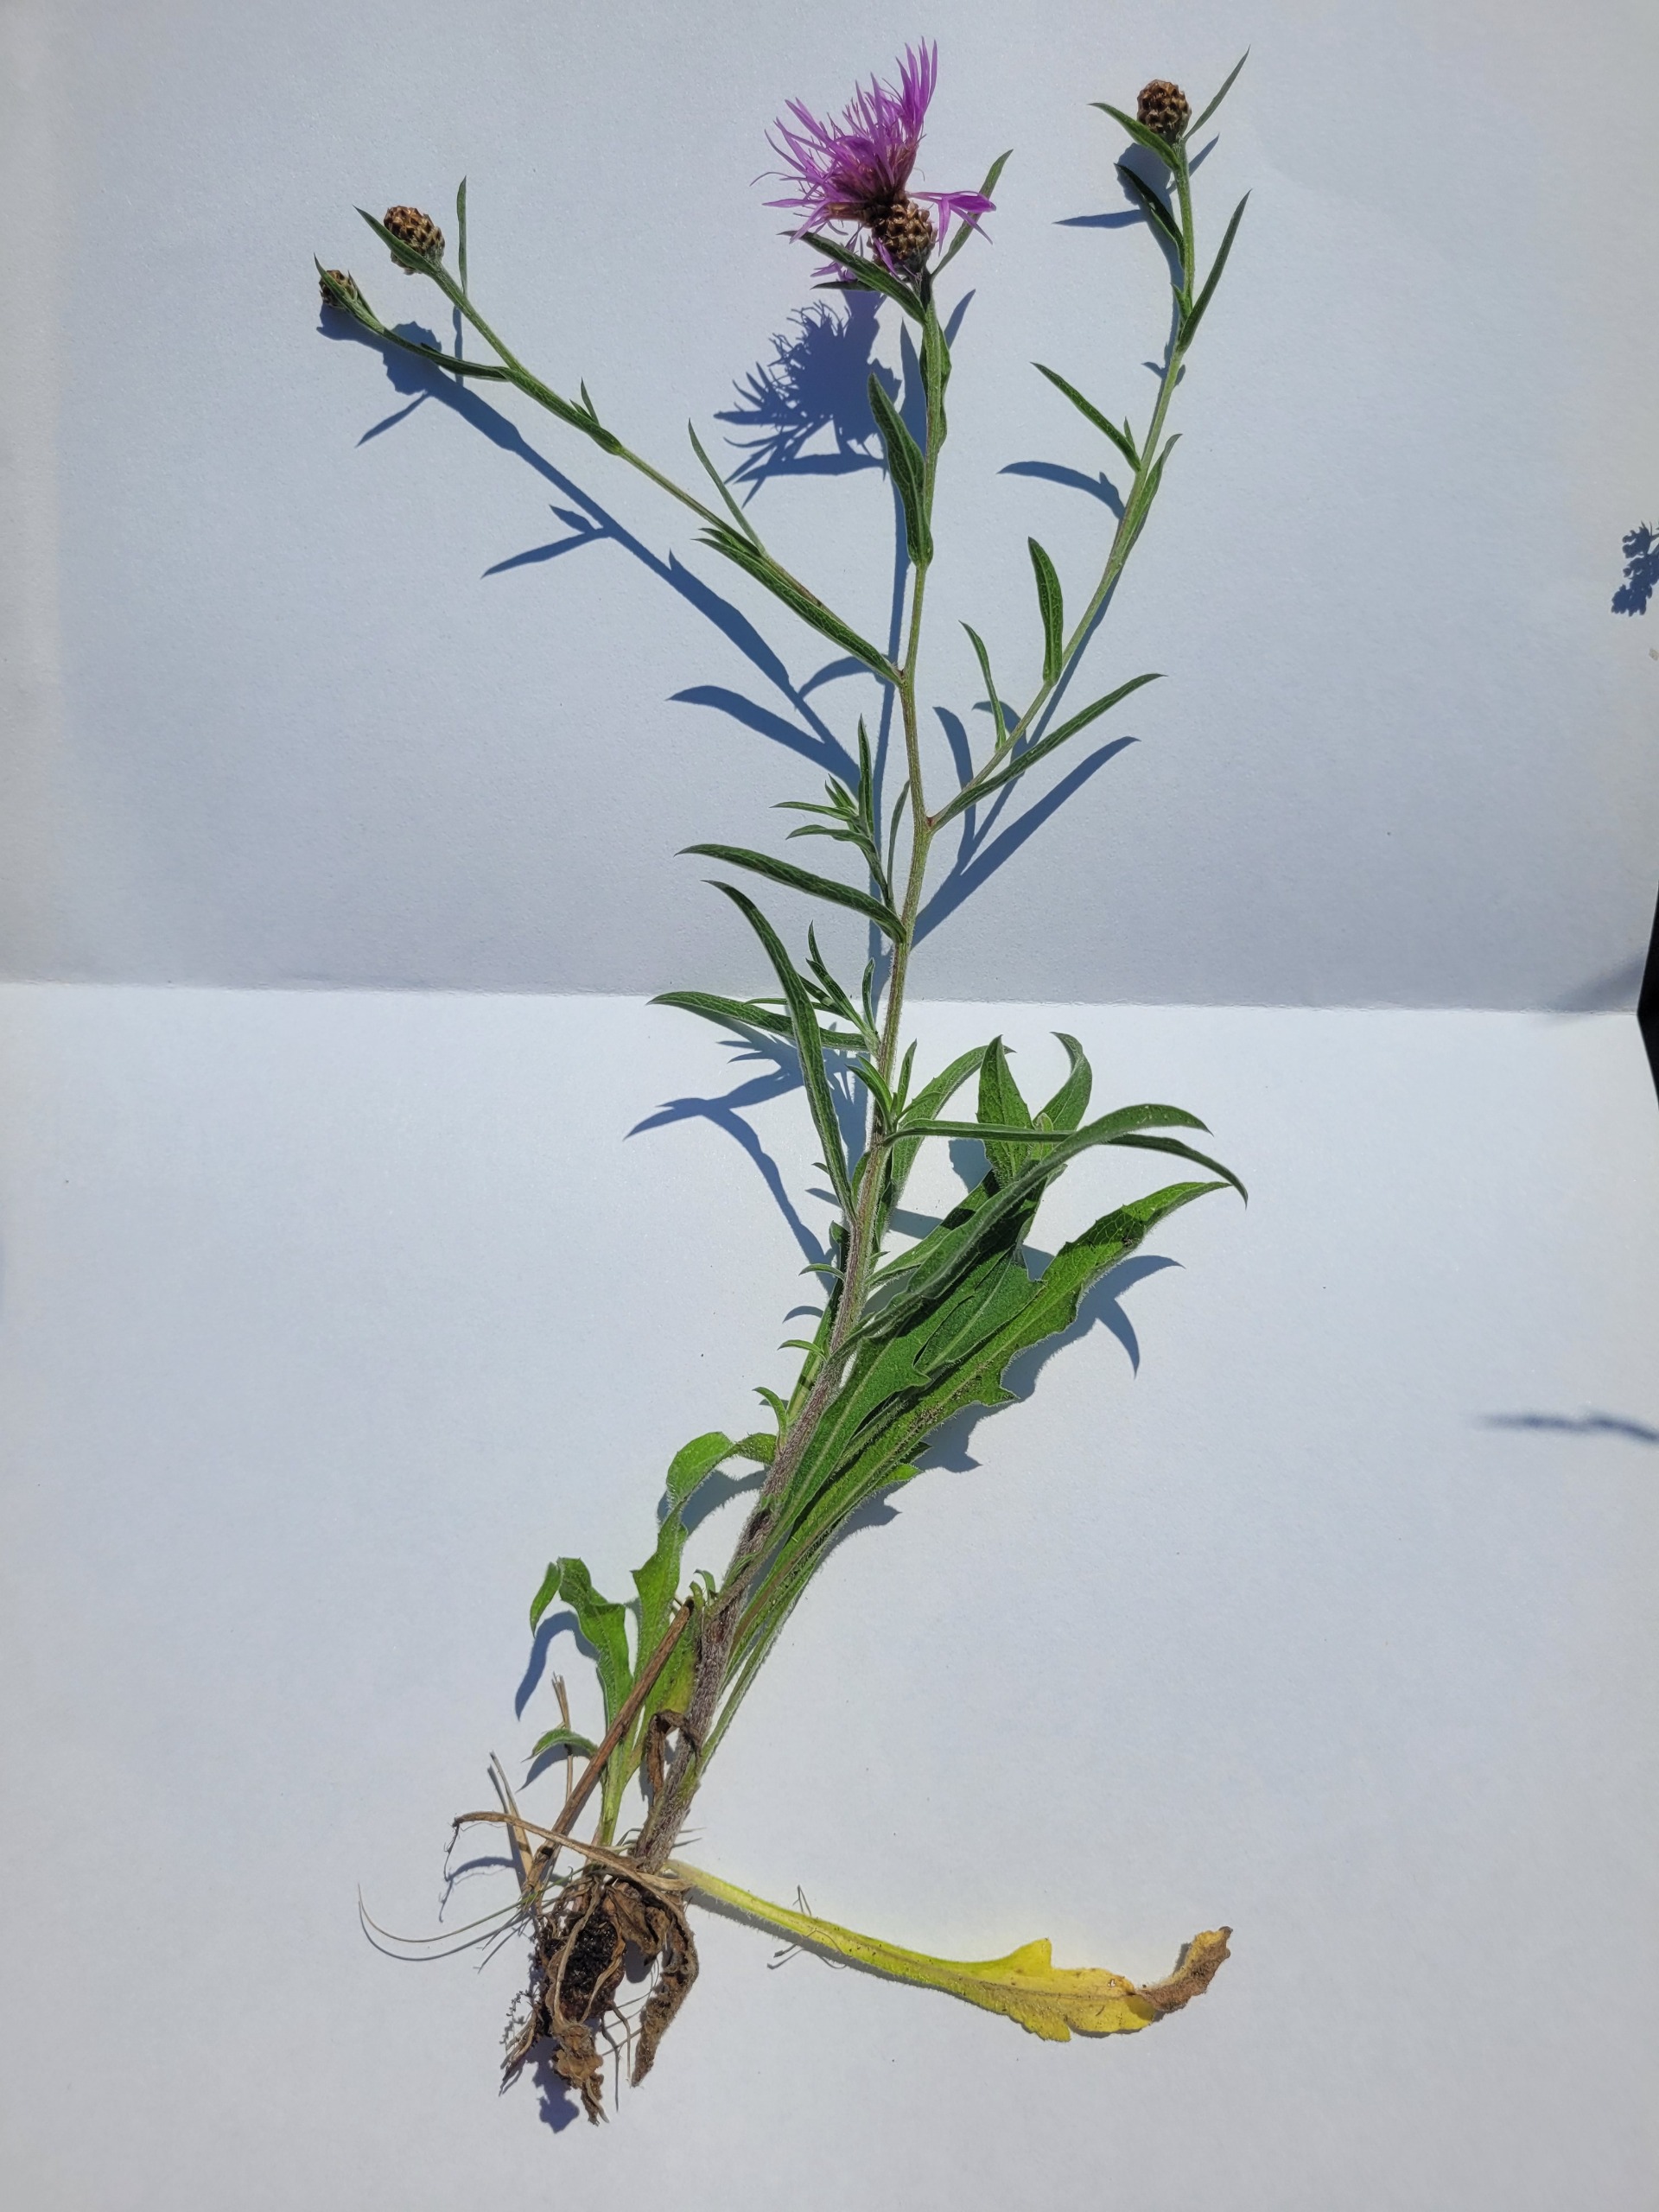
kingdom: Plantae
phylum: Tracheophyta
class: Magnoliopsida
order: Asterales
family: Asteraceae
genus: Centaurea
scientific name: Centaurea jacea
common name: Almindelig knopurt
